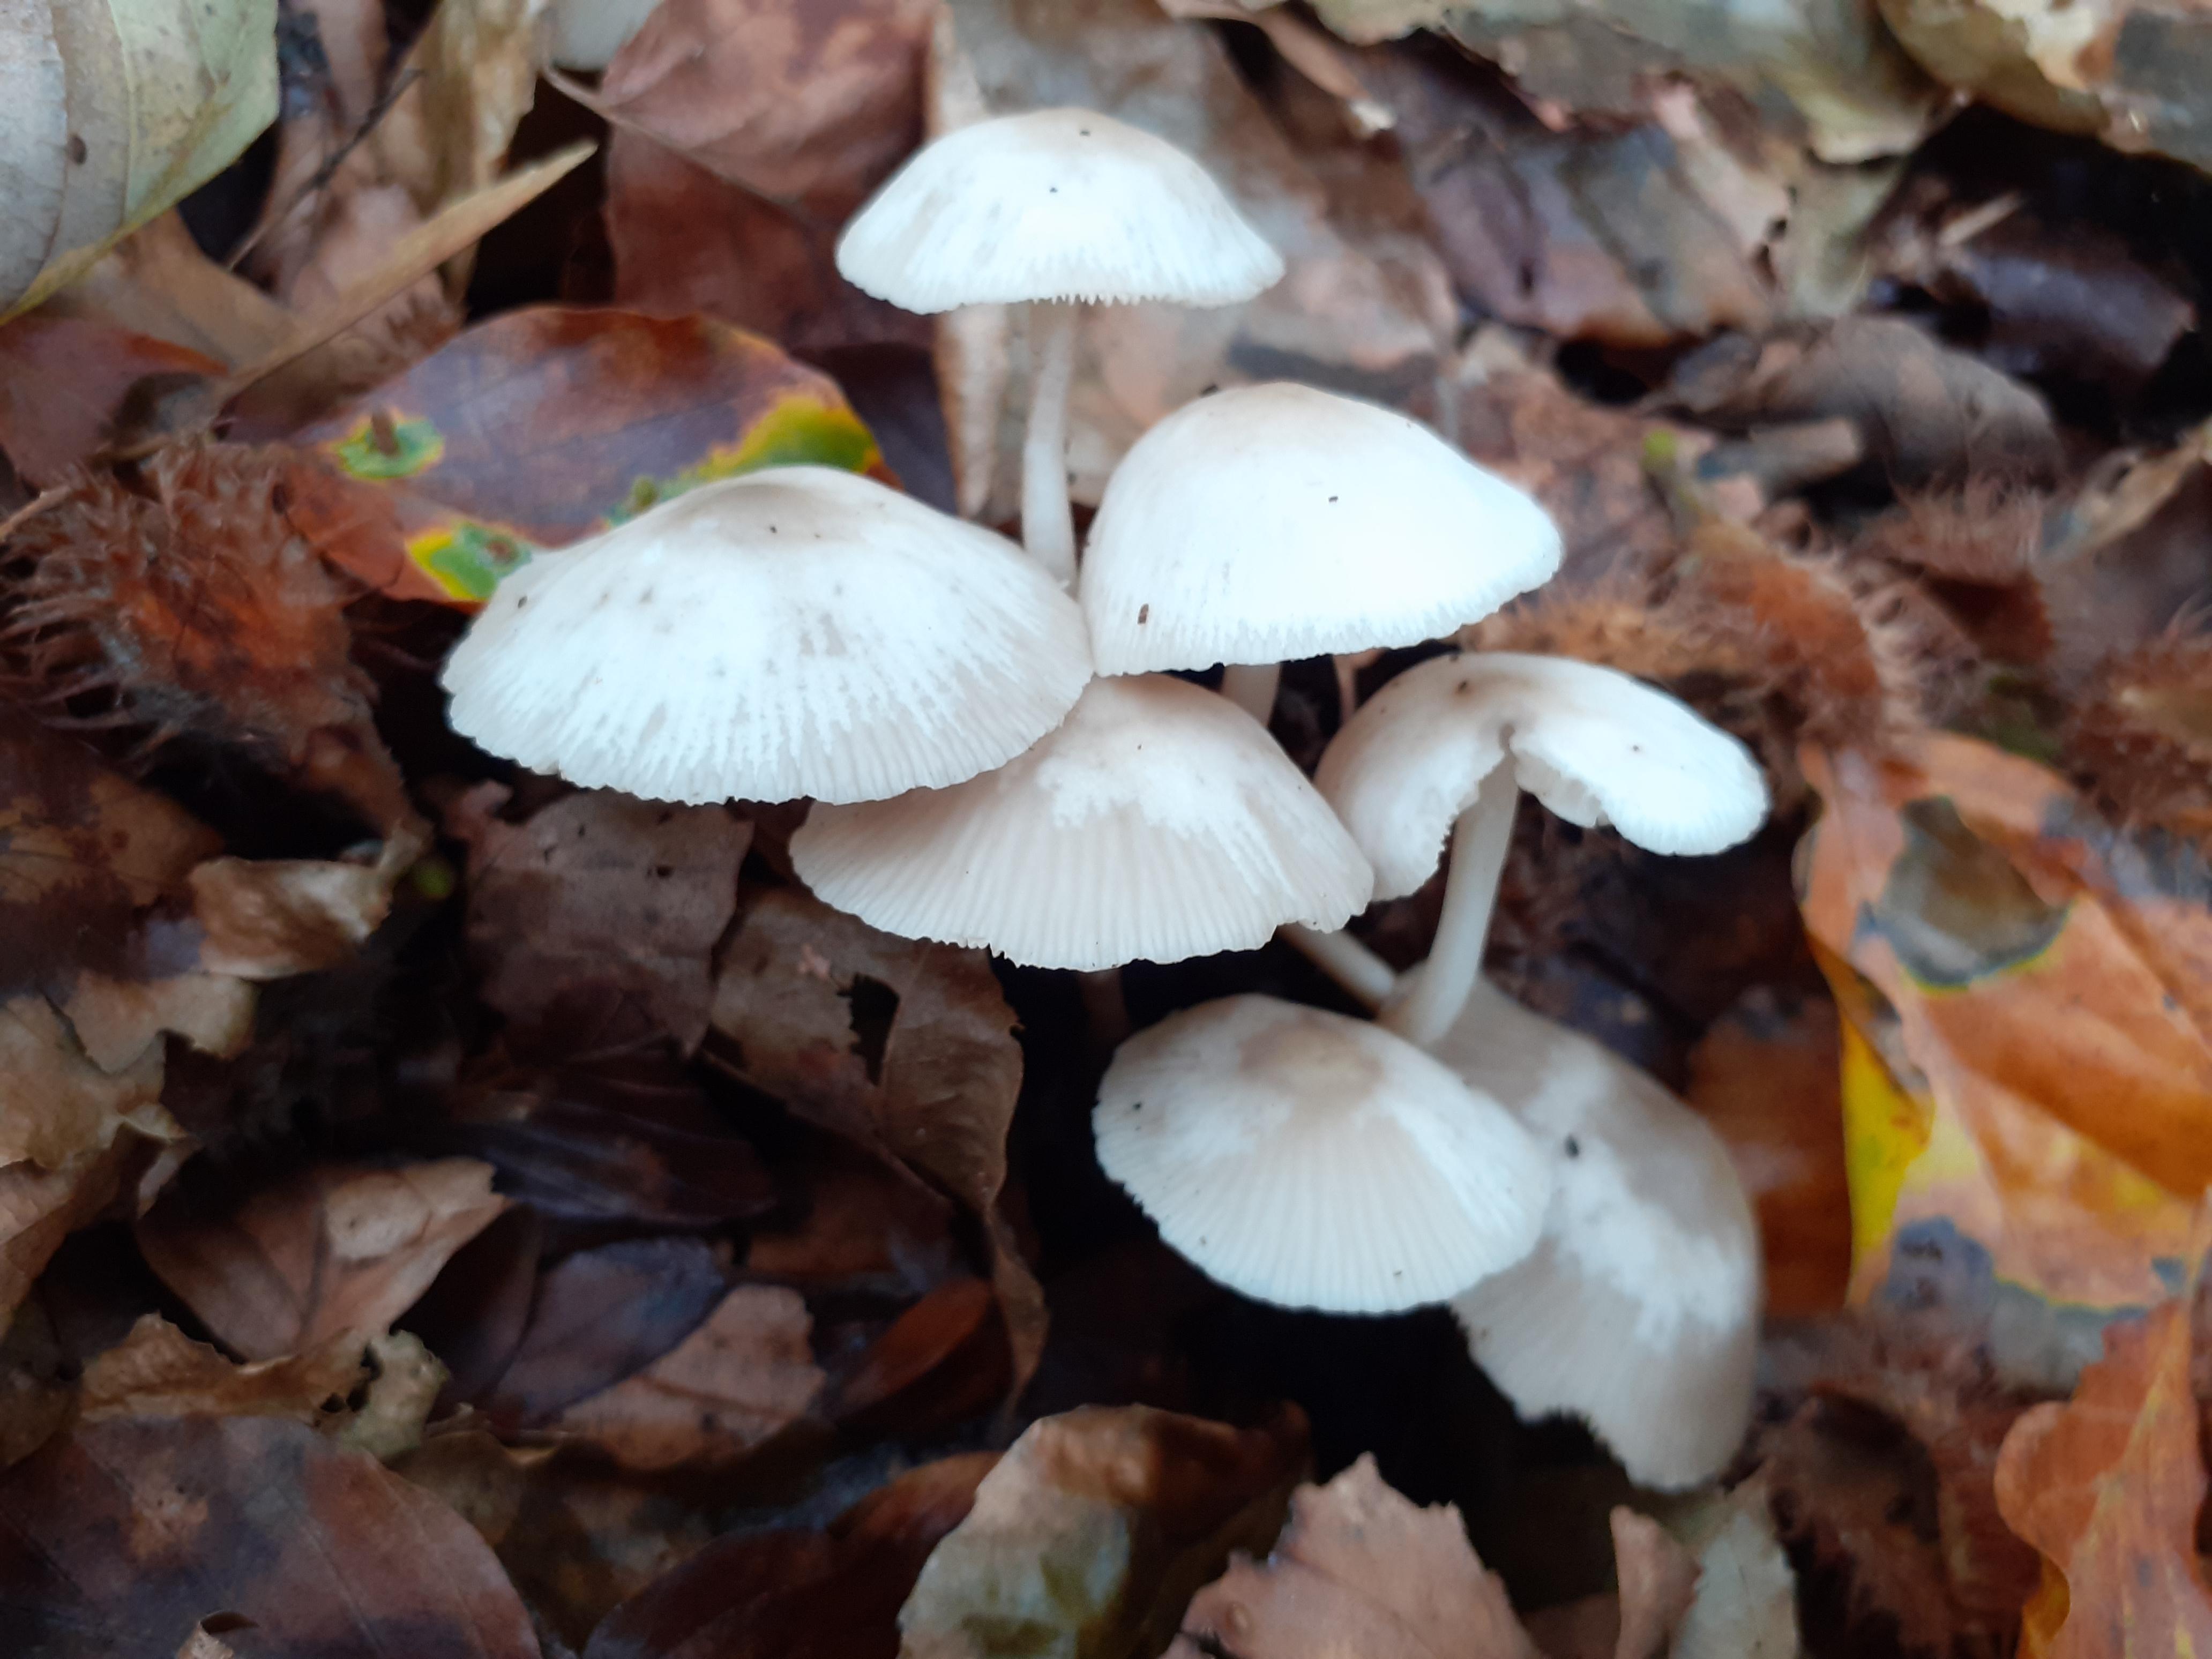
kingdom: Fungi
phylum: Basidiomycota
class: Agaricomycetes
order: Agaricales
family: Marasmiaceae
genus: Marasmius
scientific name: Marasmius wynneae
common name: hvælvet bruskhat
